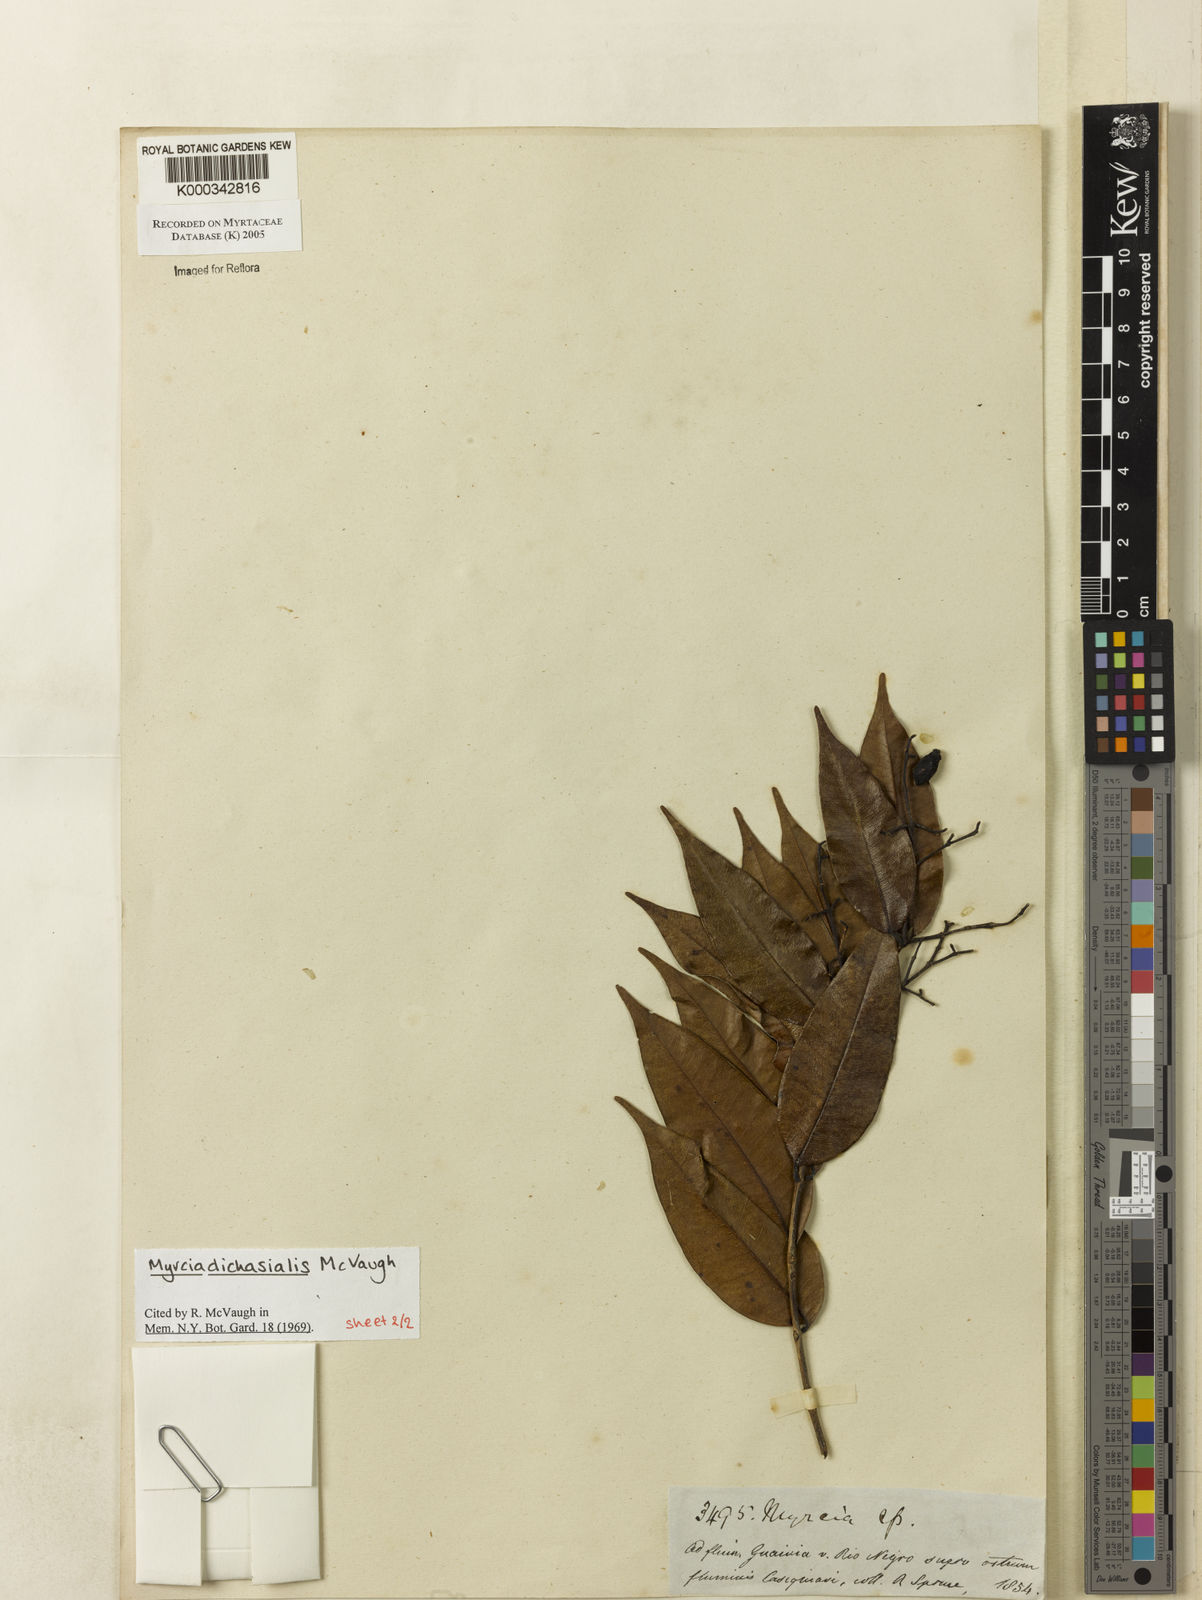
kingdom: Plantae
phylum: Tracheophyta
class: Magnoliopsida
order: Myrtales
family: Myrtaceae
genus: Myrcia
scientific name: Myrcia dichasialis
